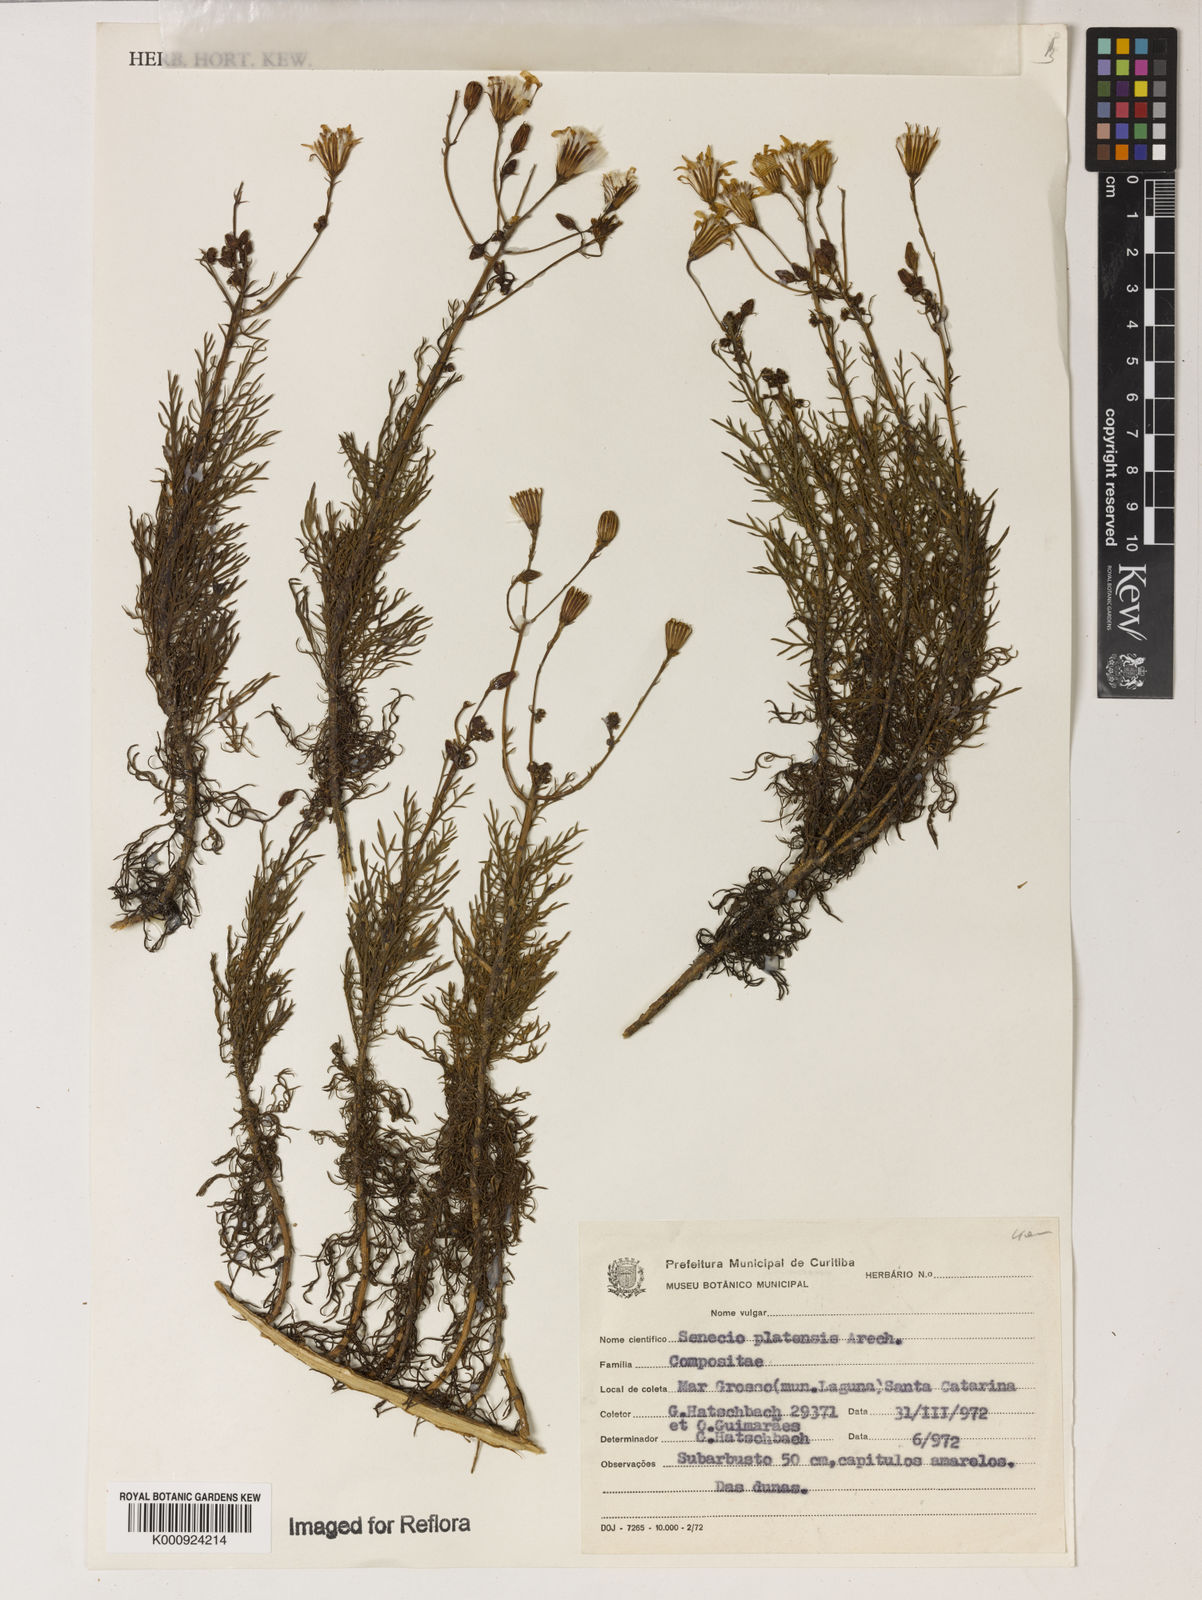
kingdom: Plantae
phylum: Tracheophyta
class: Magnoliopsida
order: Asterales
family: Asteraceae
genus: Senecio
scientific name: Senecio platensis
